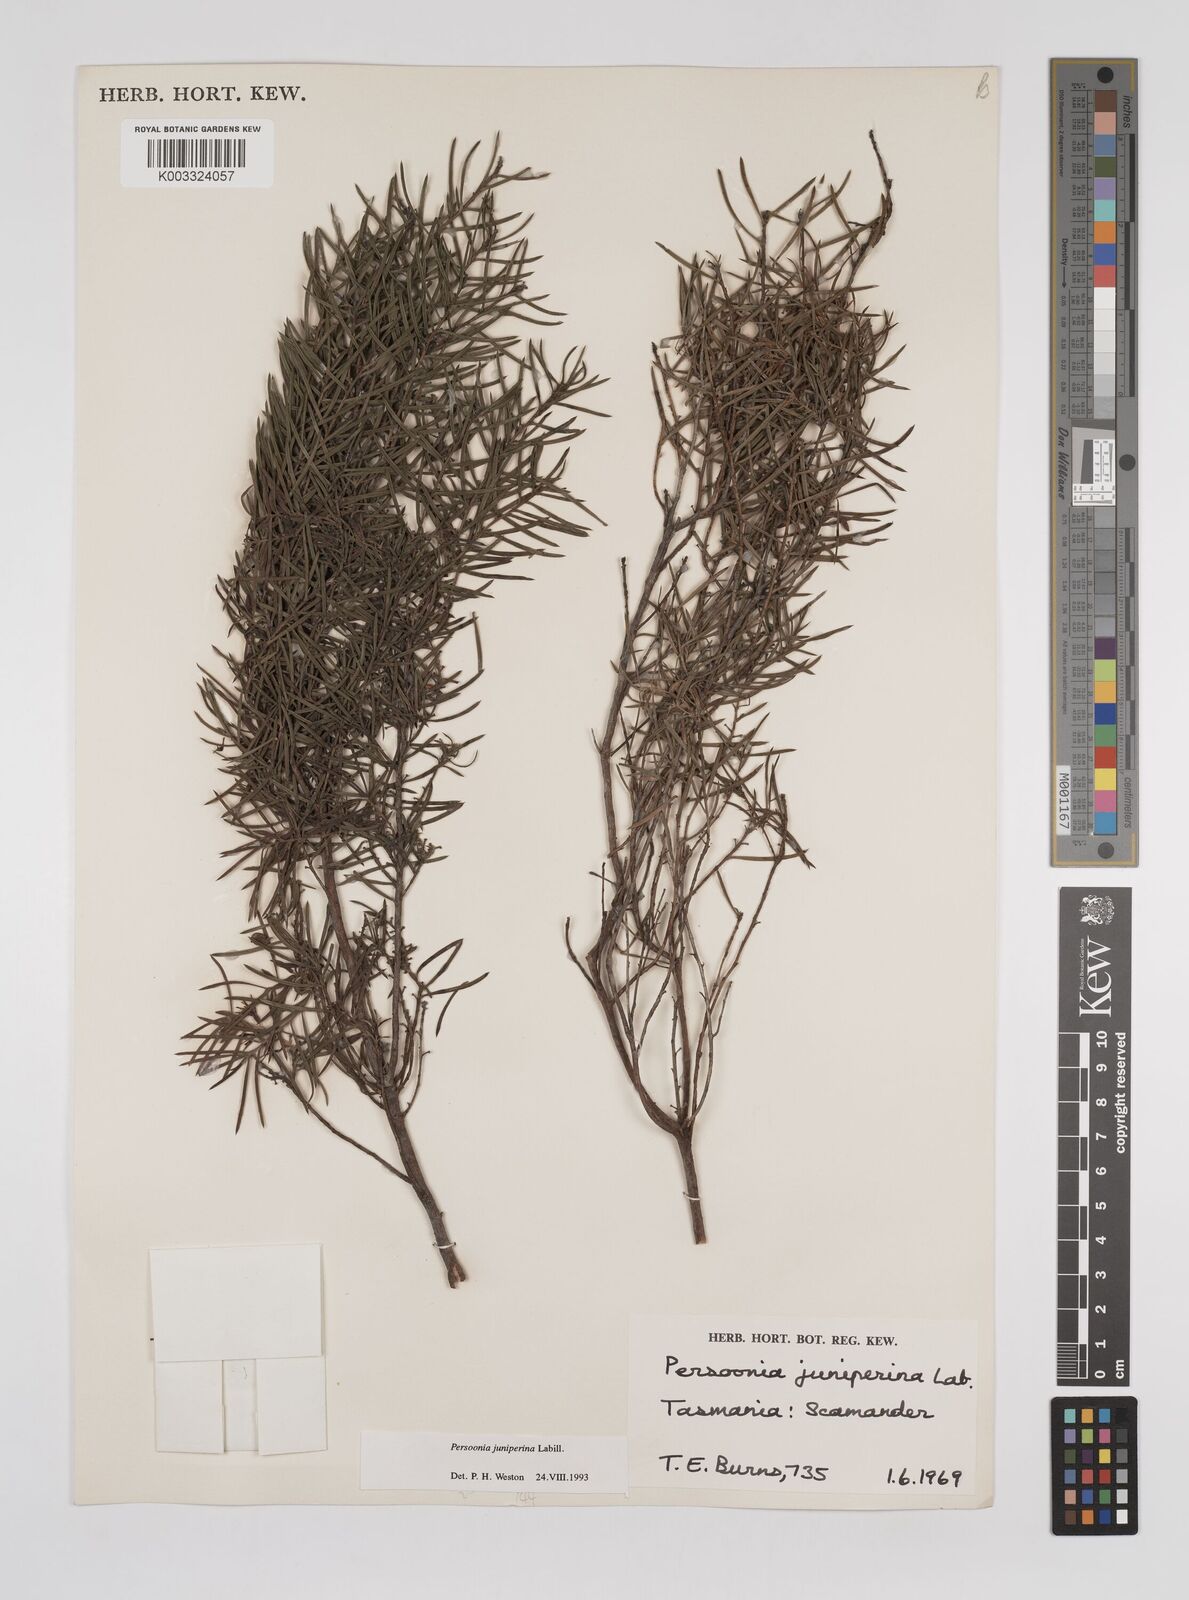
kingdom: Plantae
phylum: Tracheophyta
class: Magnoliopsida
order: Proteales
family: Proteaceae
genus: Persoonia
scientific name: Persoonia juniperina
